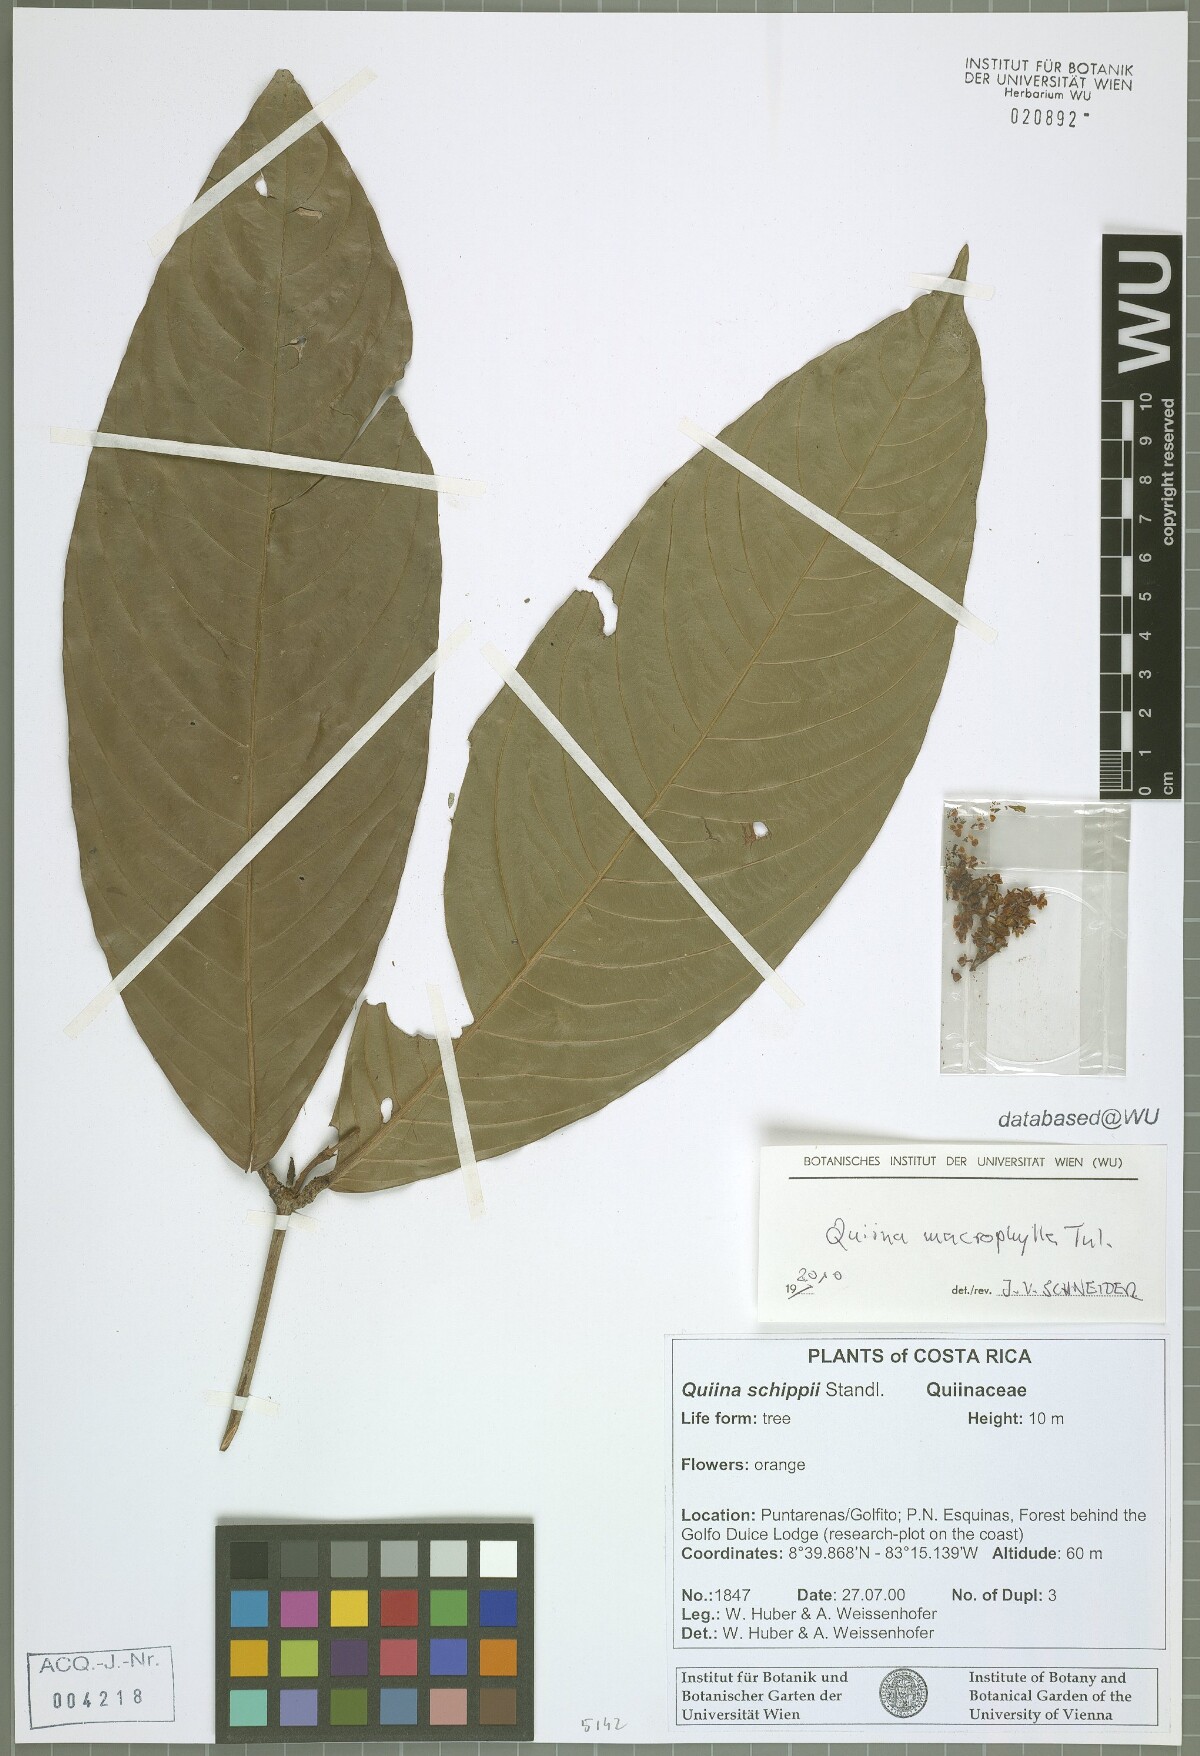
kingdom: Plantae
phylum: Tracheophyta
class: Magnoliopsida
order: Malpighiales
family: Quiinaceae
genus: Quiina
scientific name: Quiina macrophylla
